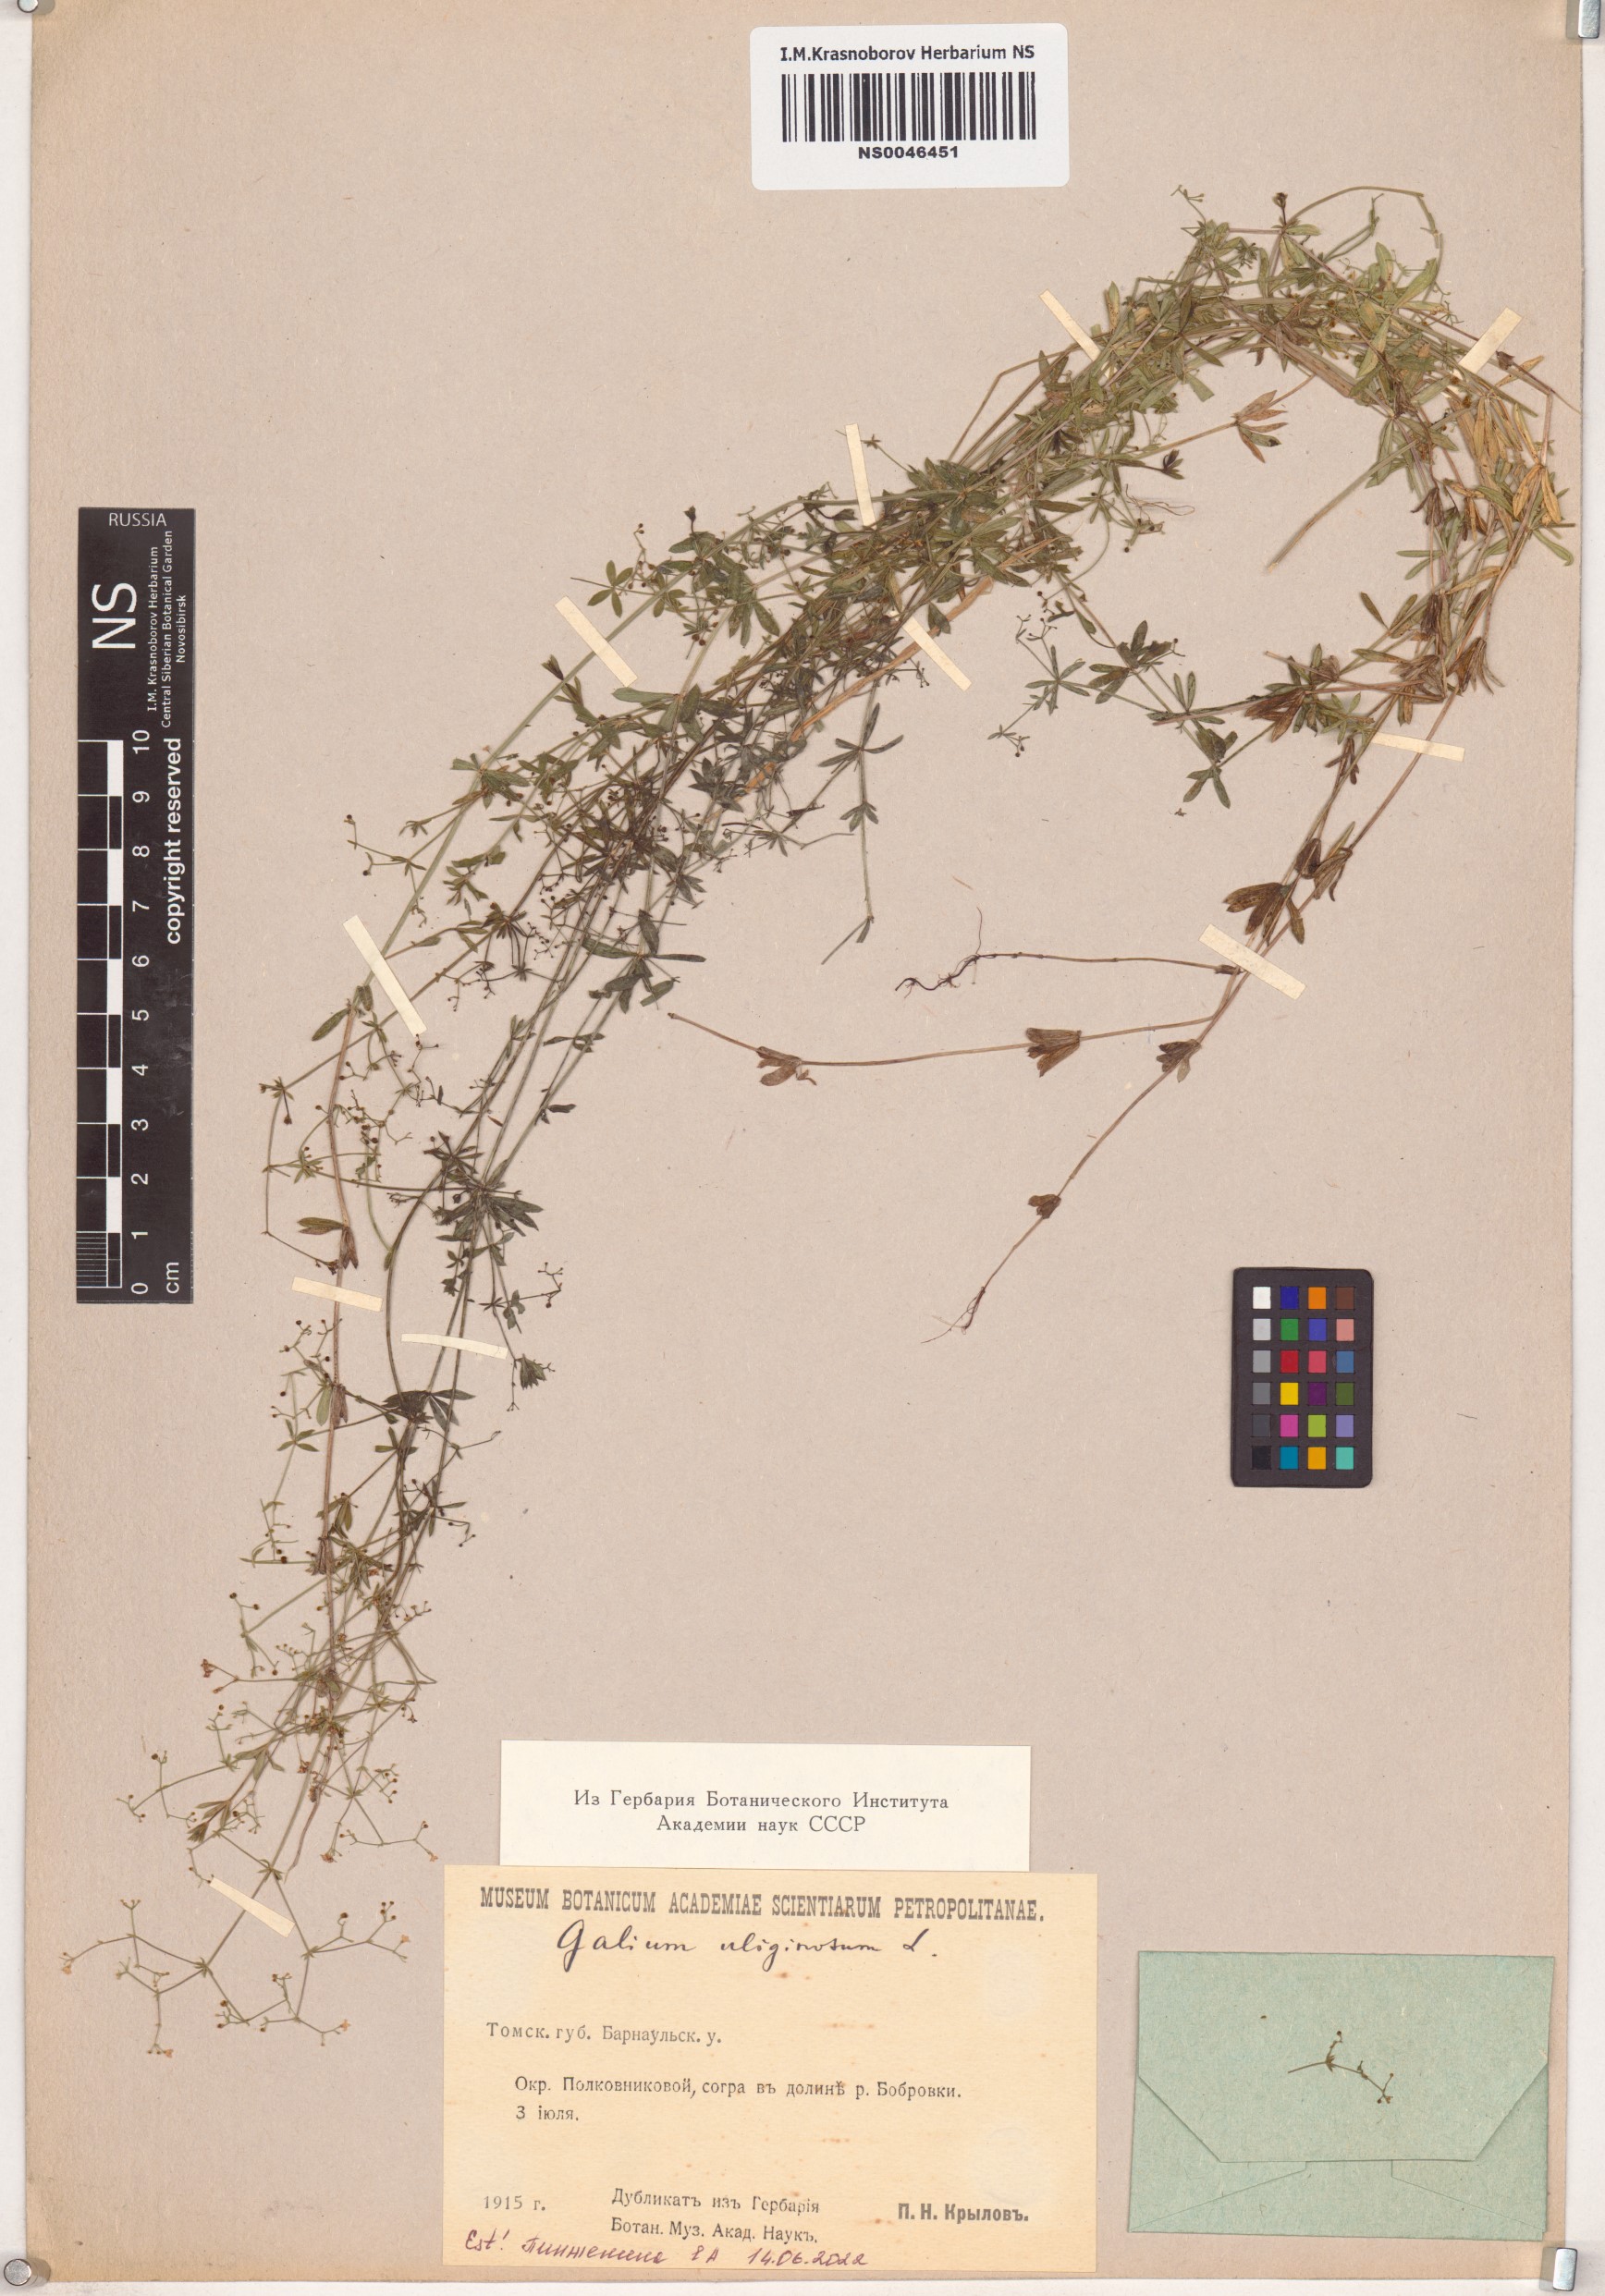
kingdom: Plantae
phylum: Tracheophyta
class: Magnoliopsida
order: Gentianales
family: Rubiaceae
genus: Galium
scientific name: Galium uliginosum
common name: Fen bedstraw
